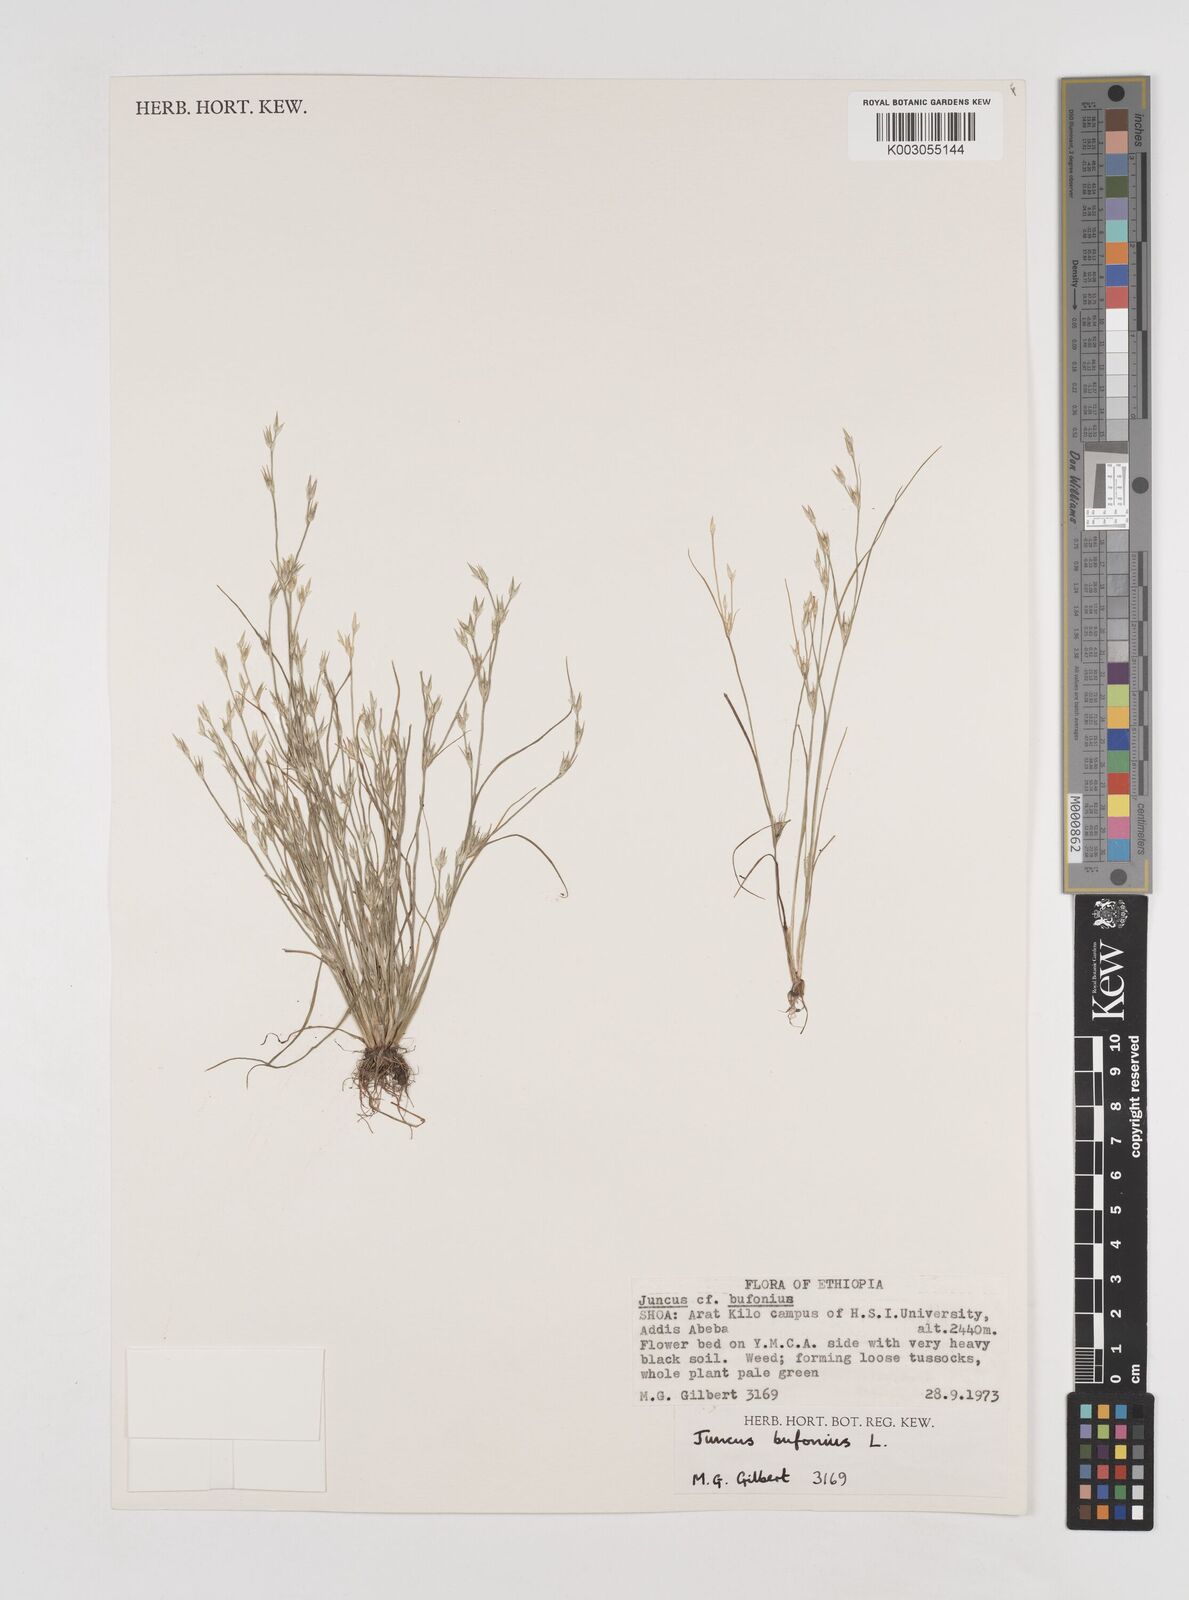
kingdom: Plantae
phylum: Tracheophyta
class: Liliopsida
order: Poales
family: Juncaceae
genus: Juncus
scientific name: Juncus bufonius
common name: Toad rush
